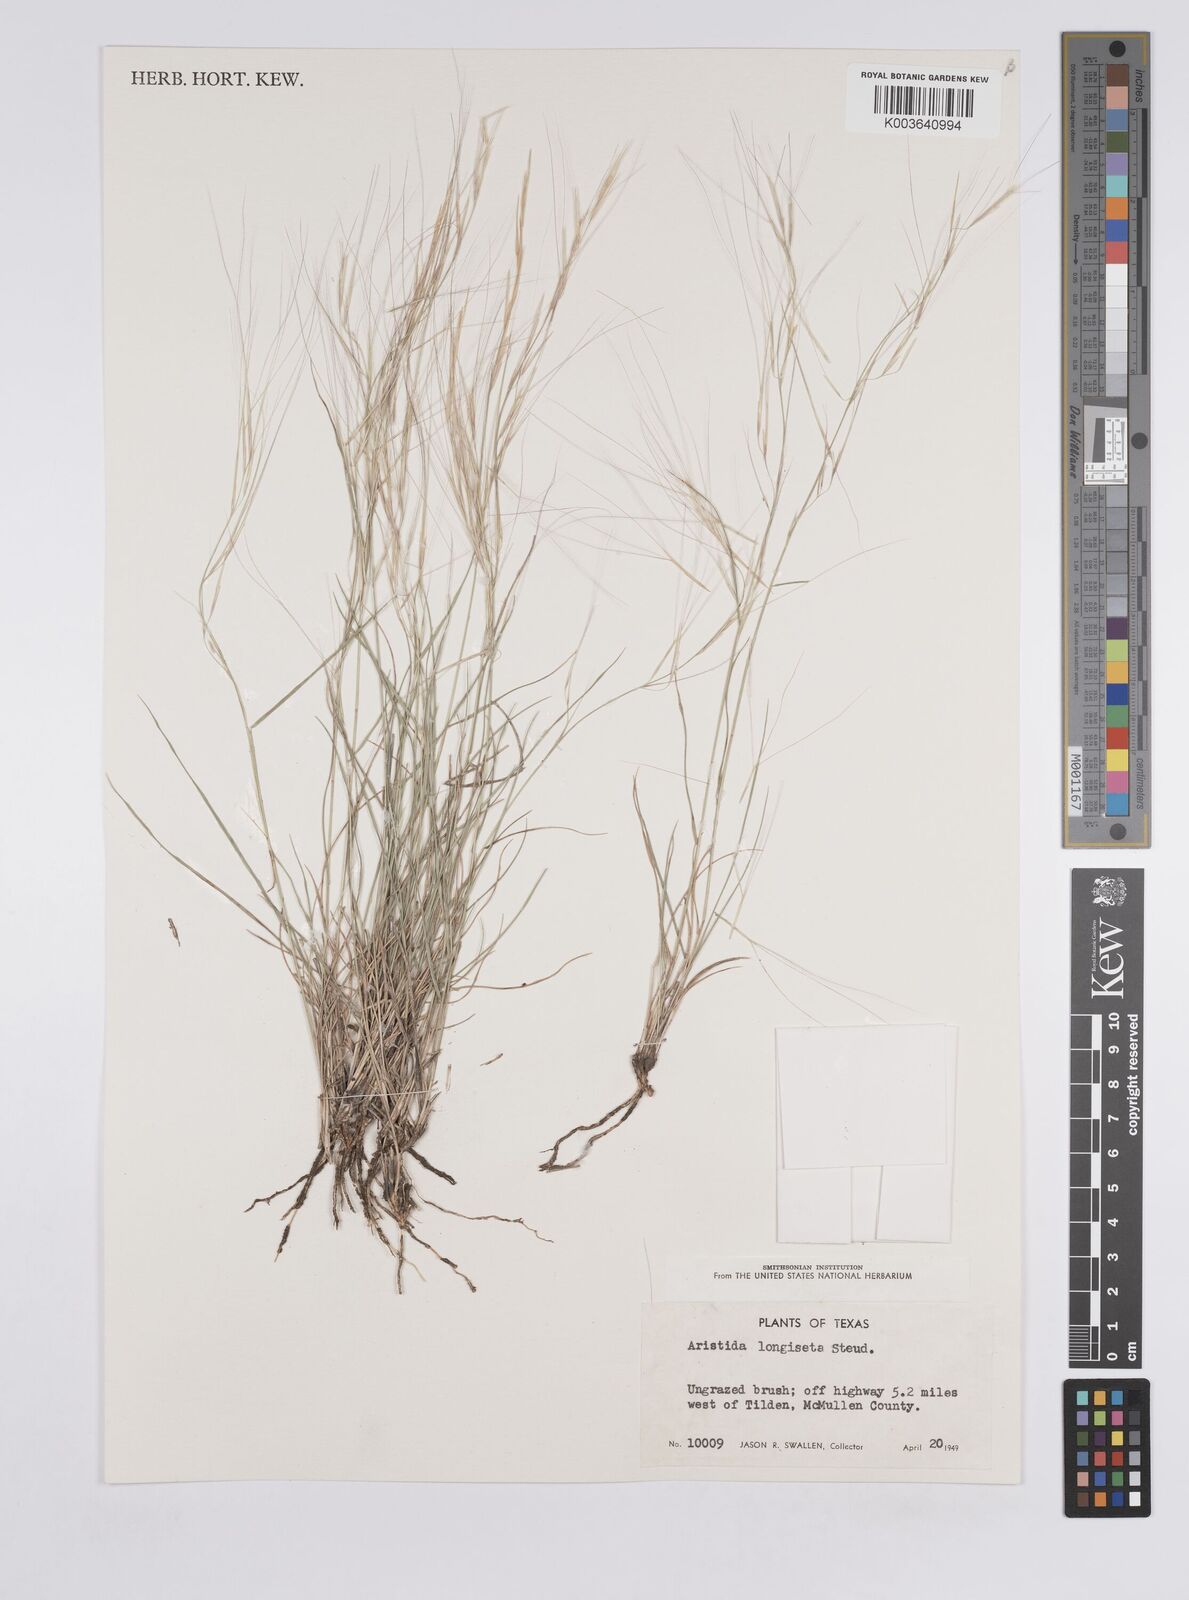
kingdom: Plantae
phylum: Tracheophyta
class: Liliopsida
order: Poales
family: Poaceae
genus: Aristida
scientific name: Aristida purpurea
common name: Purple threeawn
